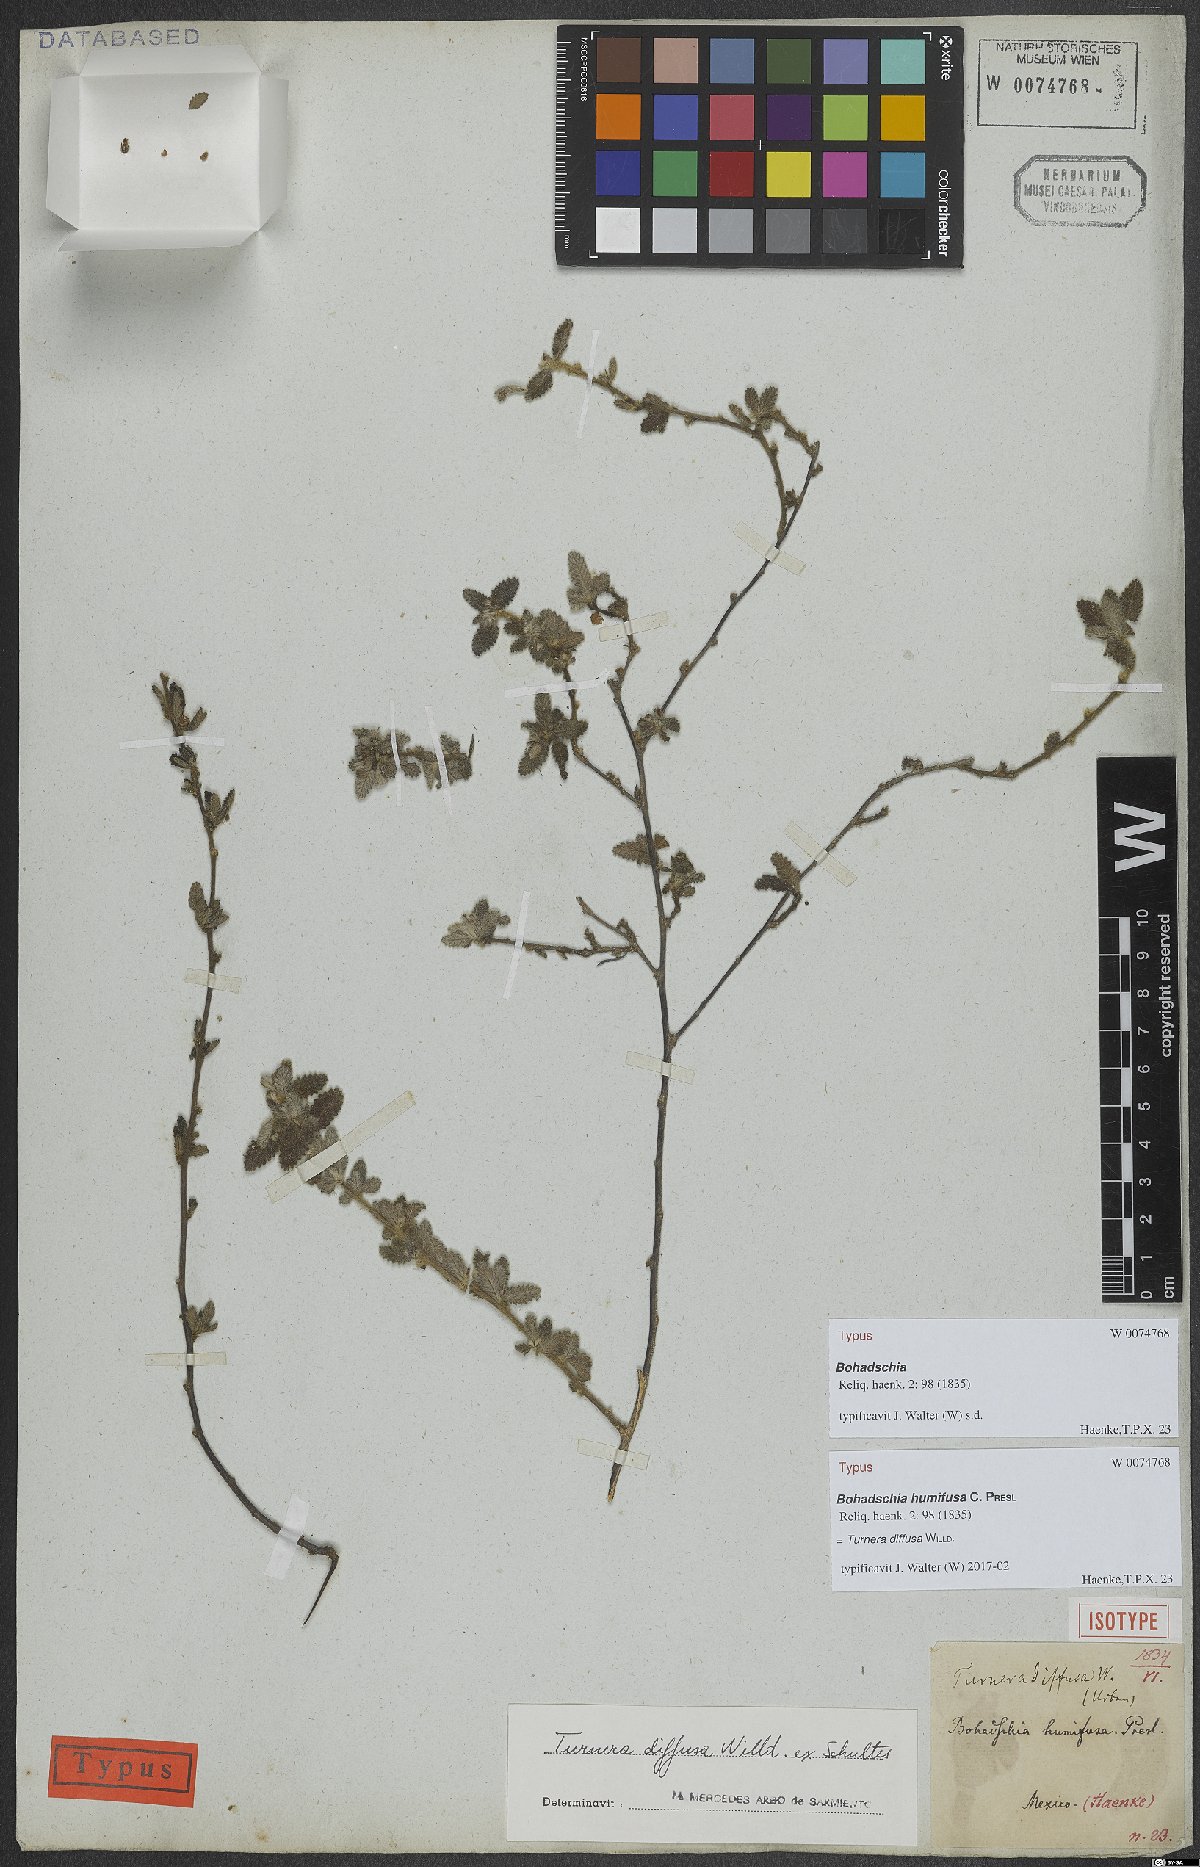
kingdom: Plantae
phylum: Tracheophyta
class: Magnoliopsida
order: Malpighiales
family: Turneraceae
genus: Turnera
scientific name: Turnera diffusa
